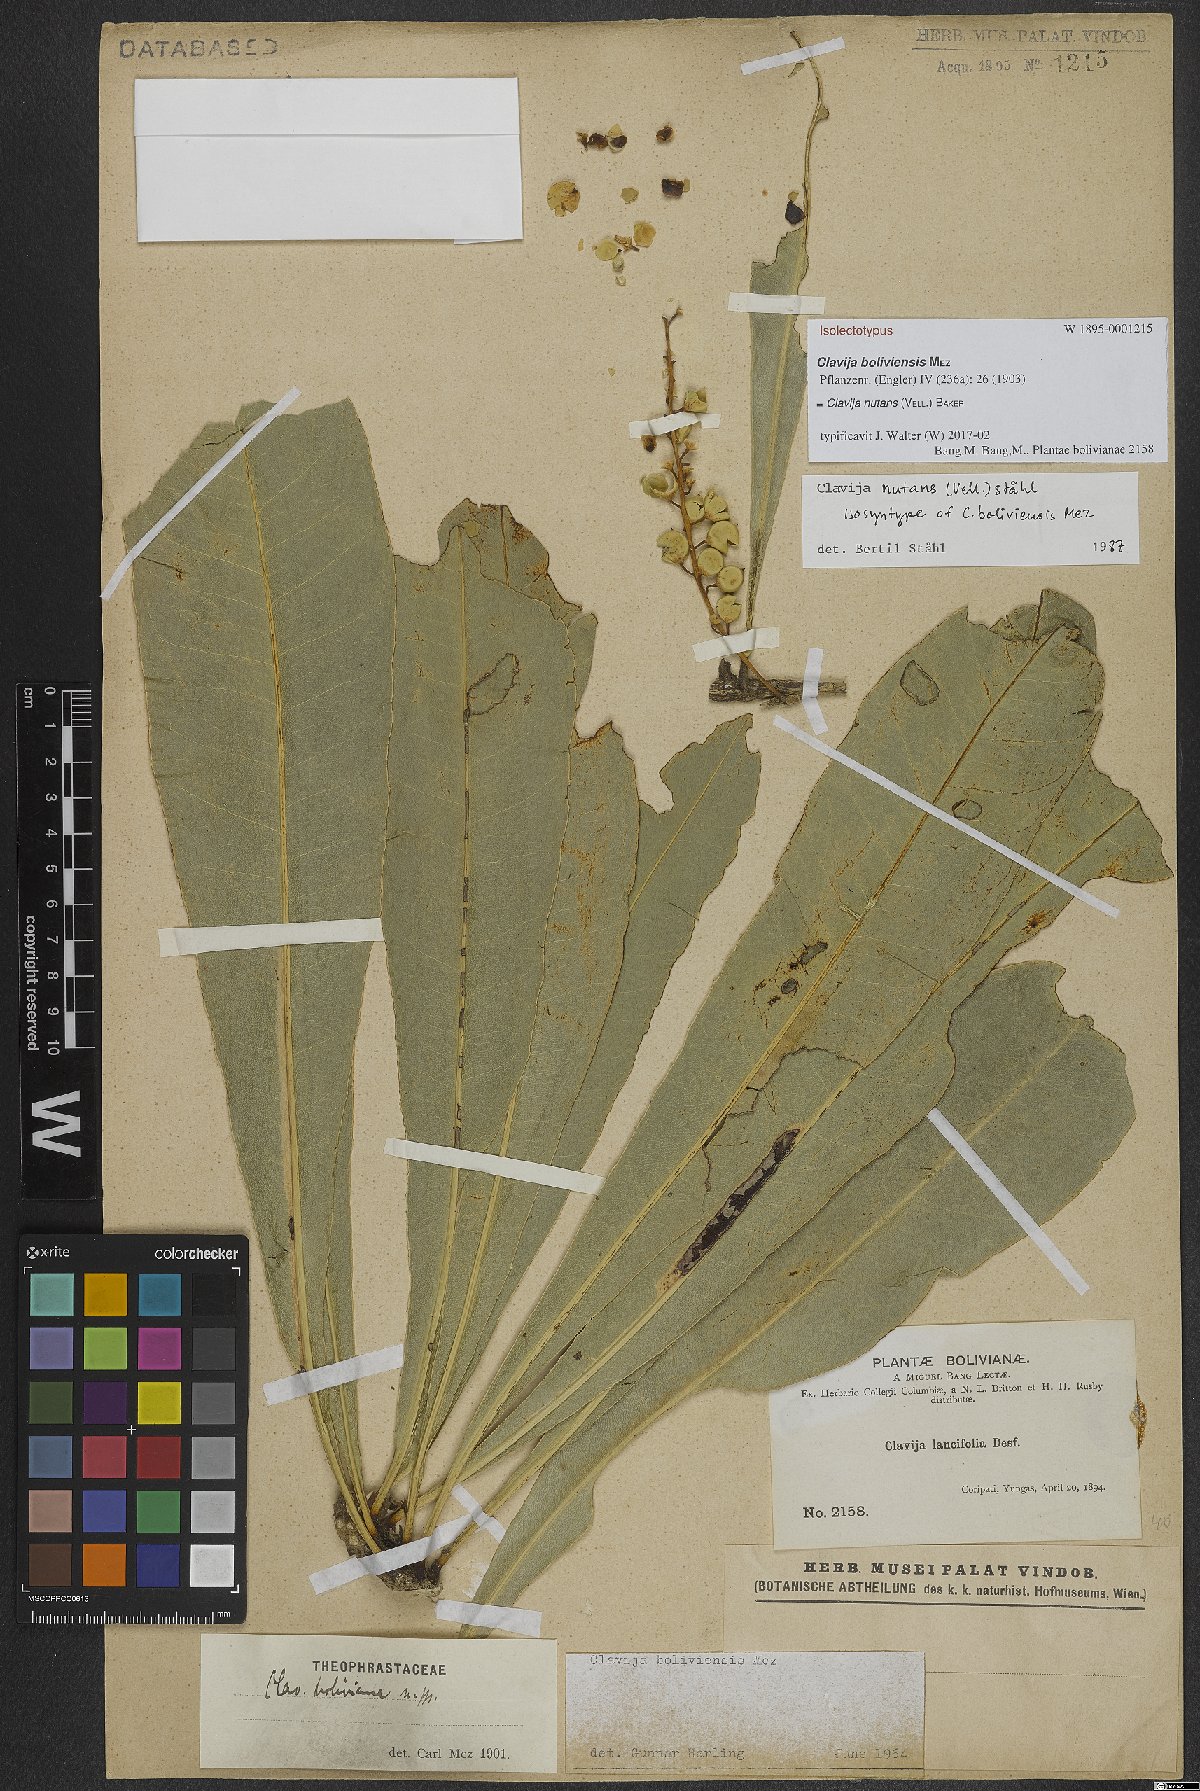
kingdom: Plantae
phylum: Tracheophyta
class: Magnoliopsida
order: Ericales
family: Primulaceae
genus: Clavija
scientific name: Clavija nutans
